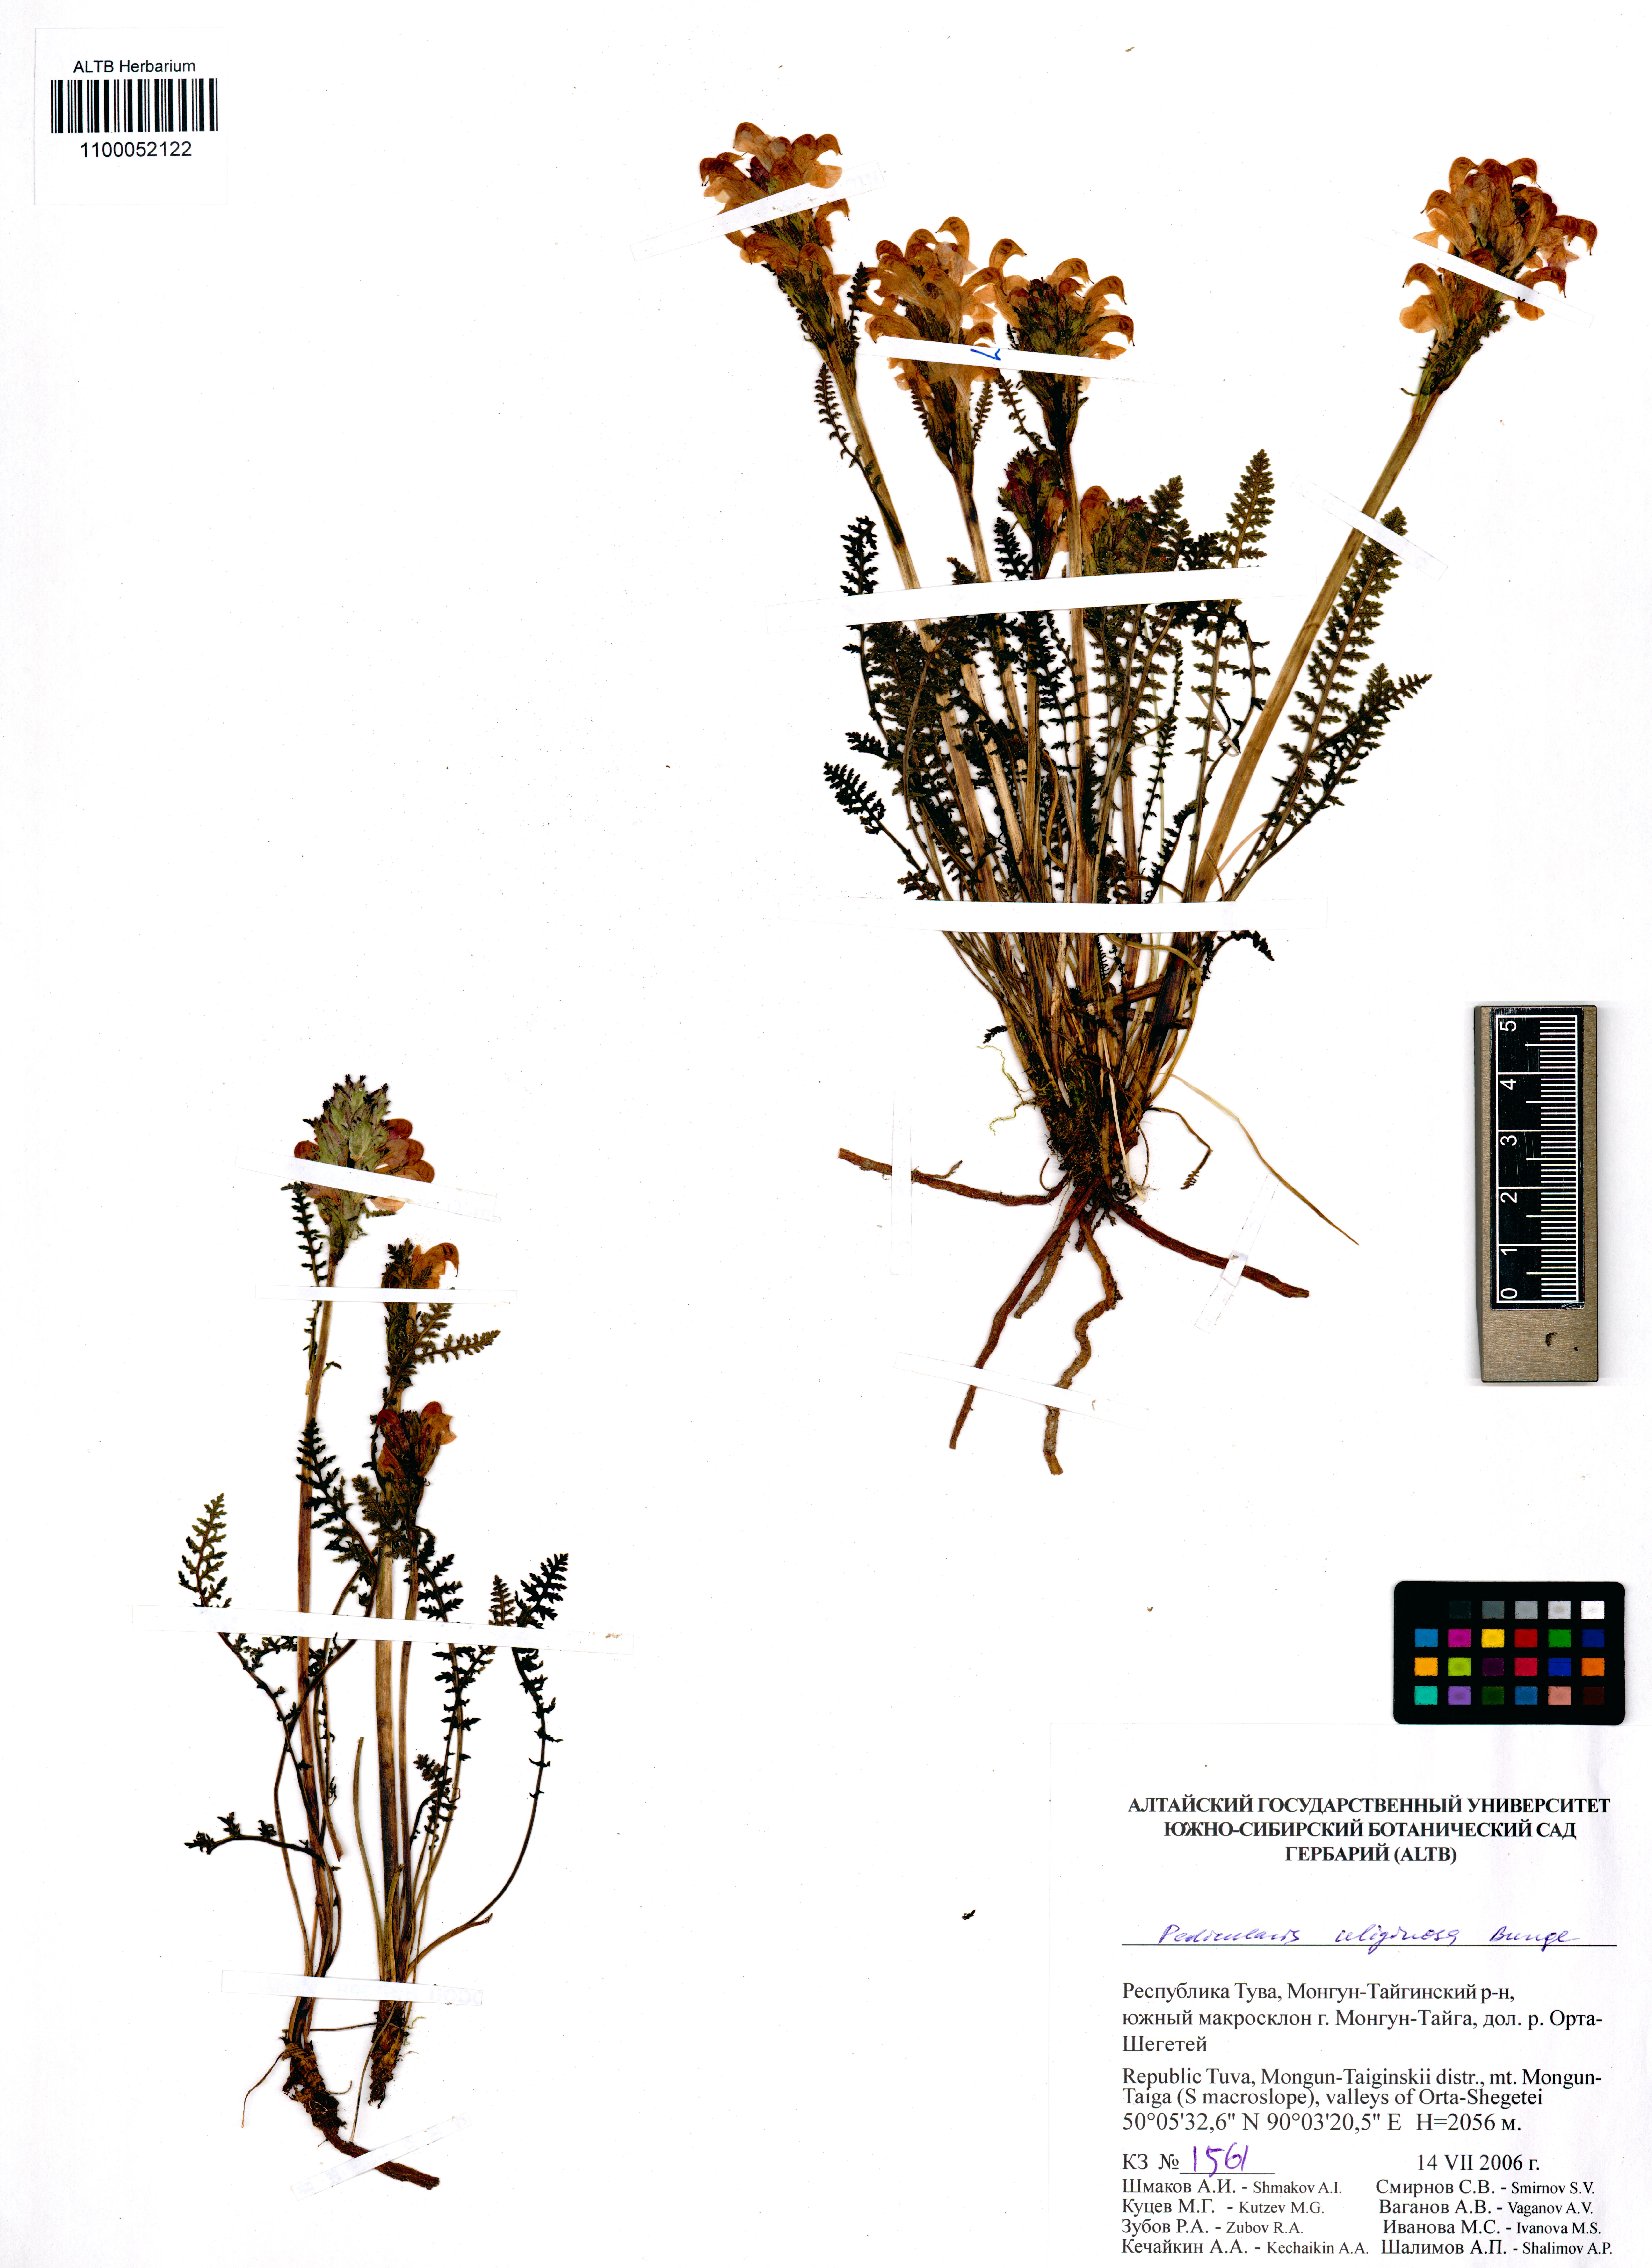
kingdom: Plantae
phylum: Tracheophyta
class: Magnoliopsida
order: Lamiales
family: Orobanchaceae
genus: Pedicularis
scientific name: Pedicularis uliginosa
